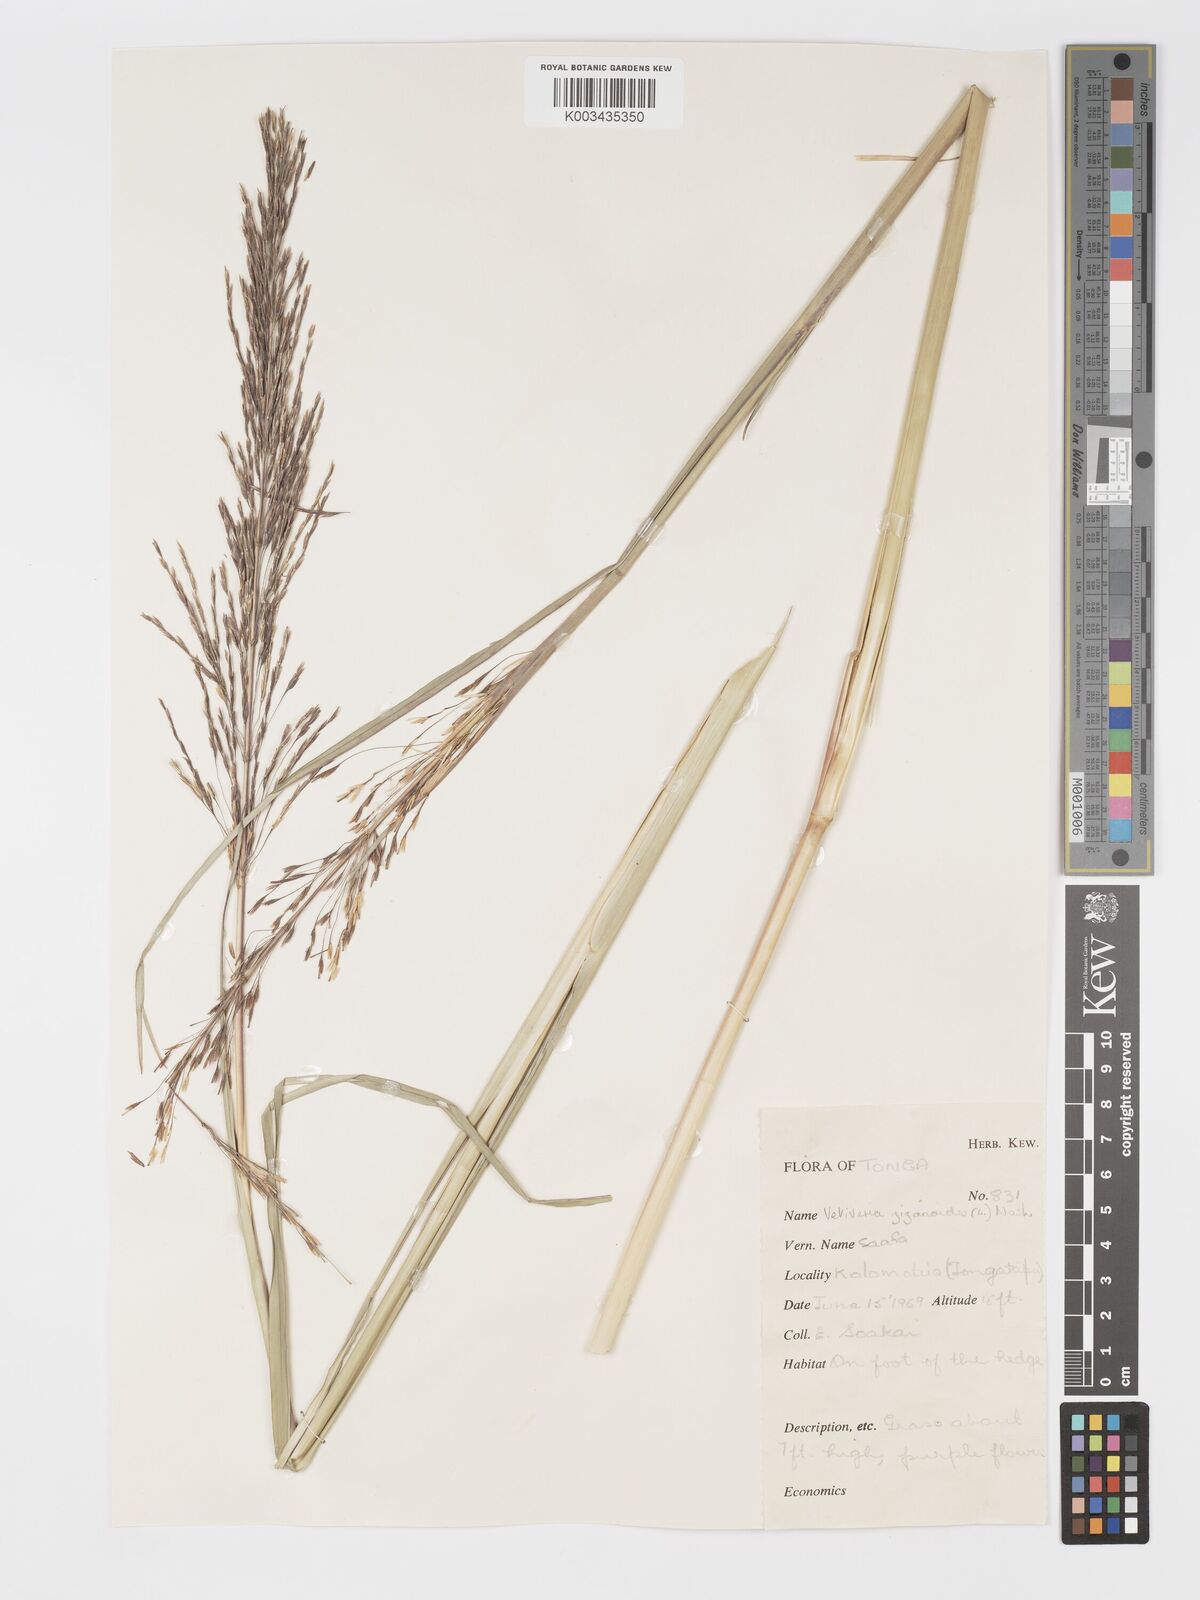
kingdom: Plantae
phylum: Tracheophyta
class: Liliopsida
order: Poales
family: Poaceae
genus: Chrysopogon
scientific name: Chrysopogon zizanioides
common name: False beardgrass
